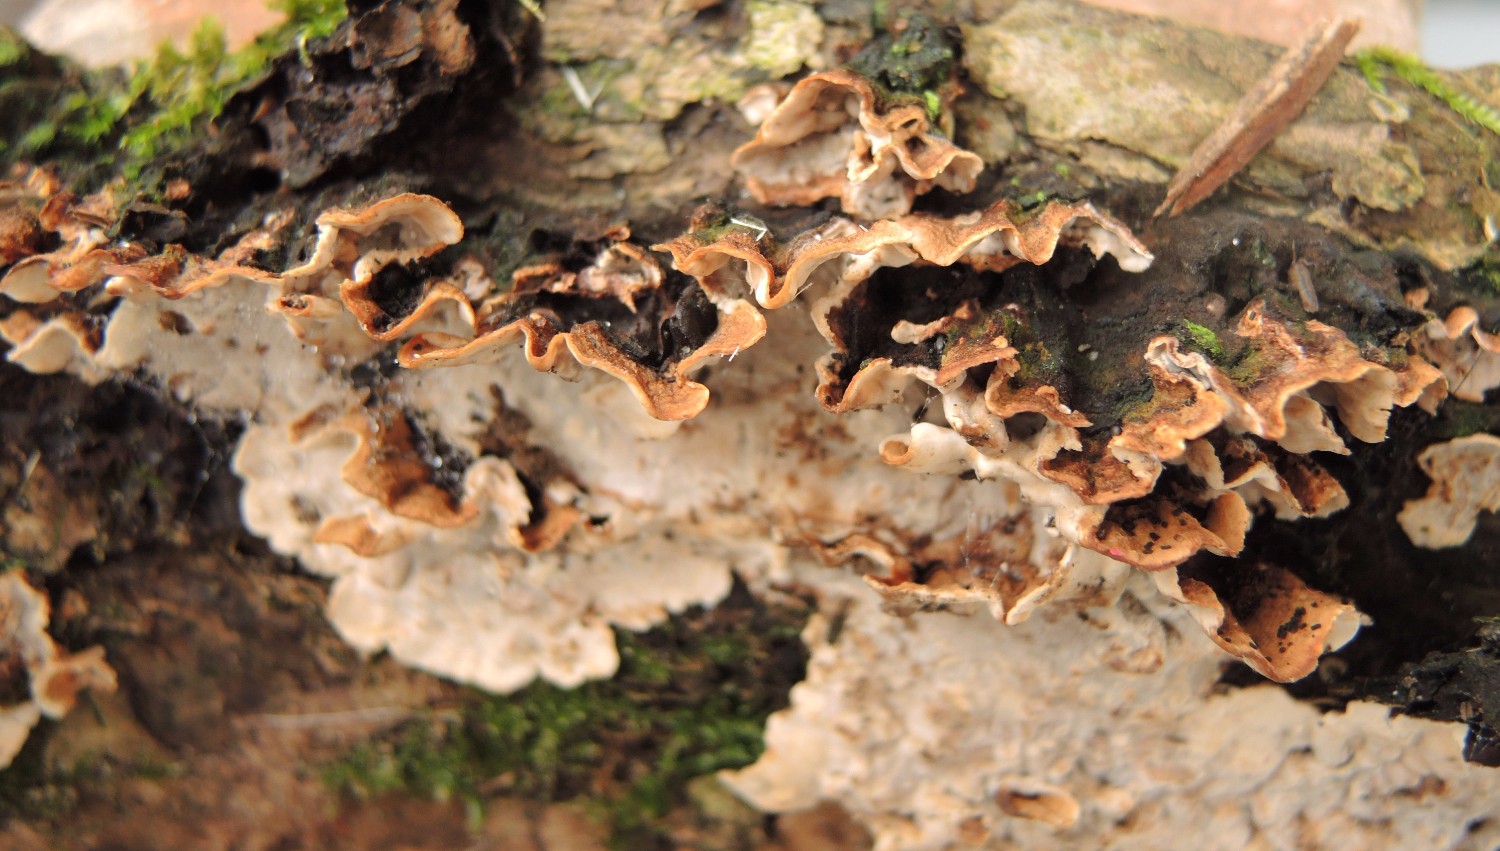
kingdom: Fungi
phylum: Basidiomycota
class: Agaricomycetes
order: Russulales
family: Hericiaceae
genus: Laxitextum
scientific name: Laxitextum bicolor
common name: tvefarvet filtskind
